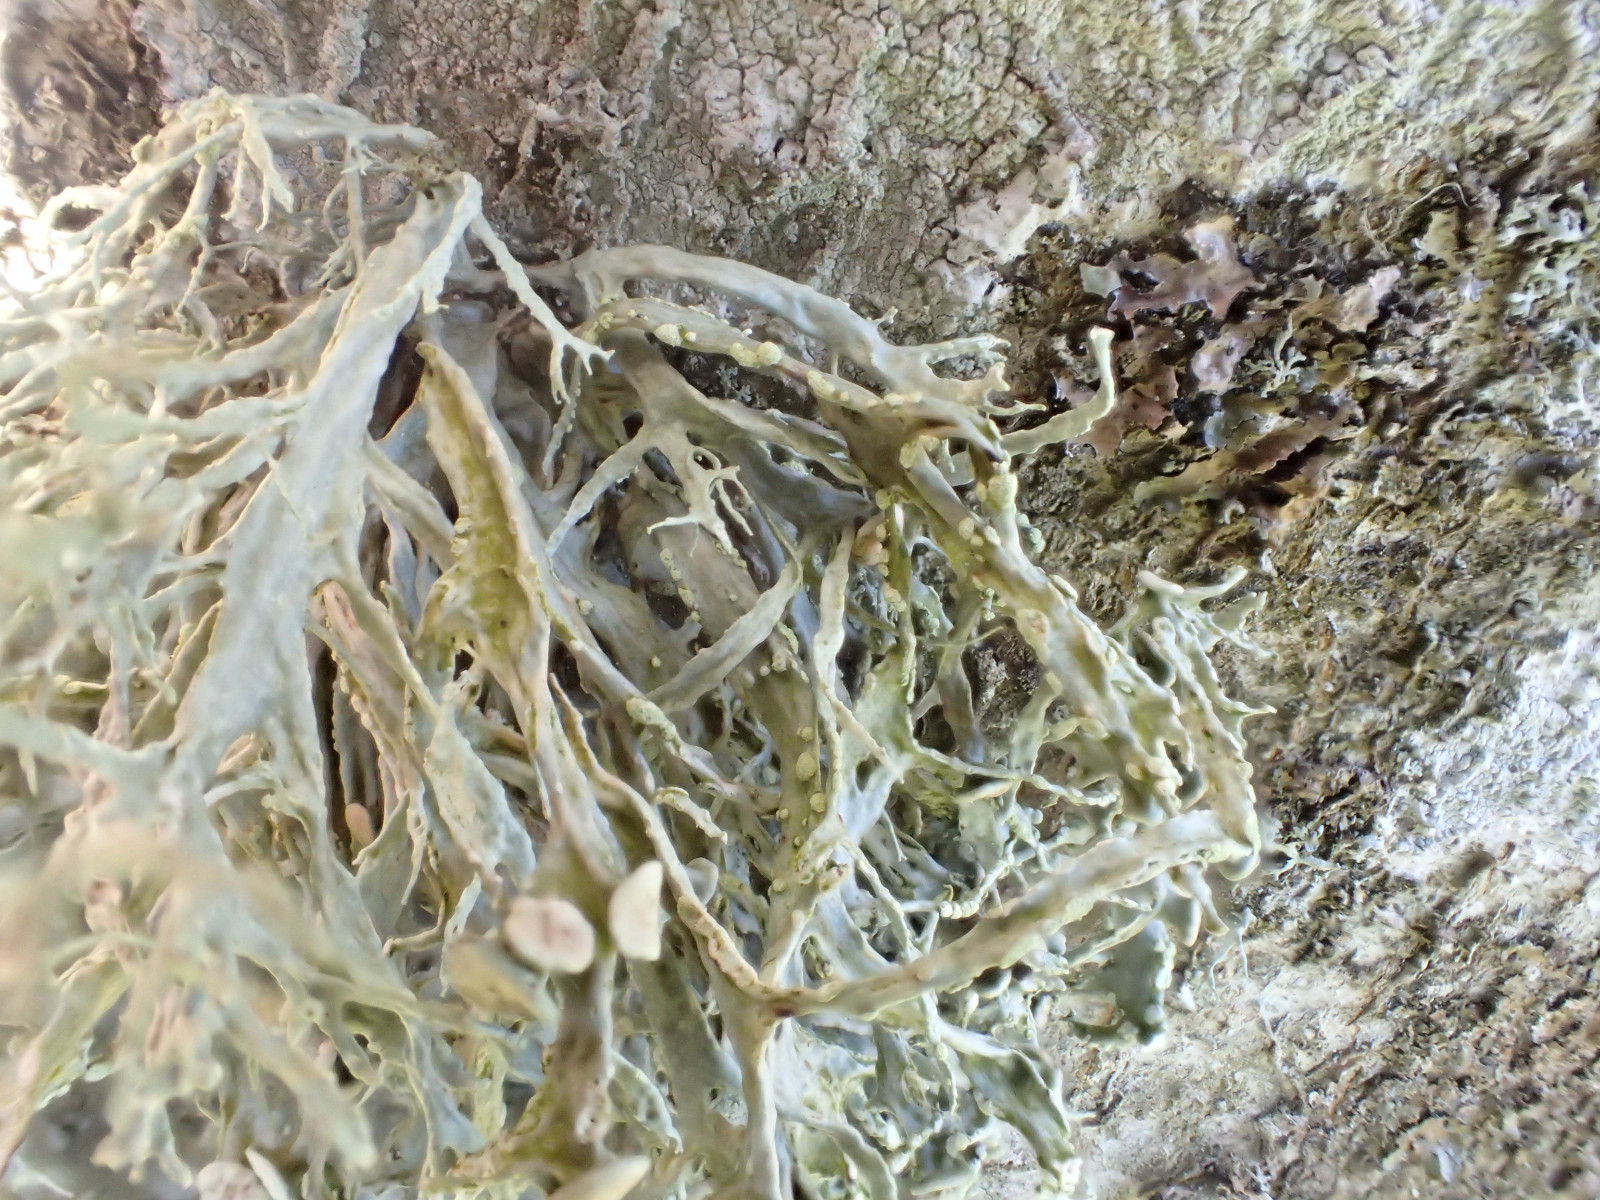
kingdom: Fungi
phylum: Ascomycota
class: Lecanoromycetes
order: Lecanorales
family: Ramalinaceae
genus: Ramalina
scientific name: Ramalina farinacea
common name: melet grenlav
